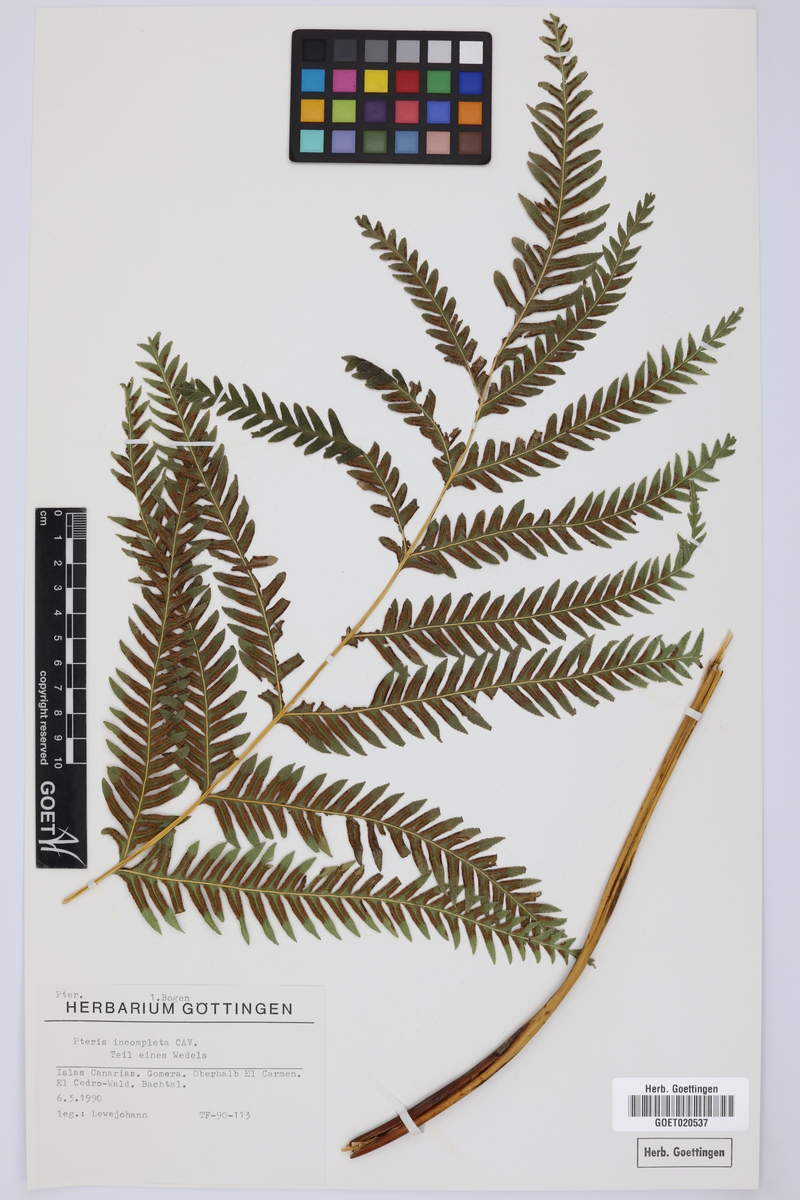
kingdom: Plantae
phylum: Tracheophyta
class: Polypodiopsida
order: Polypodiales
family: Pteridaceae
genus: Pteris
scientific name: Pteris incompleta
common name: Laurisilva brake
